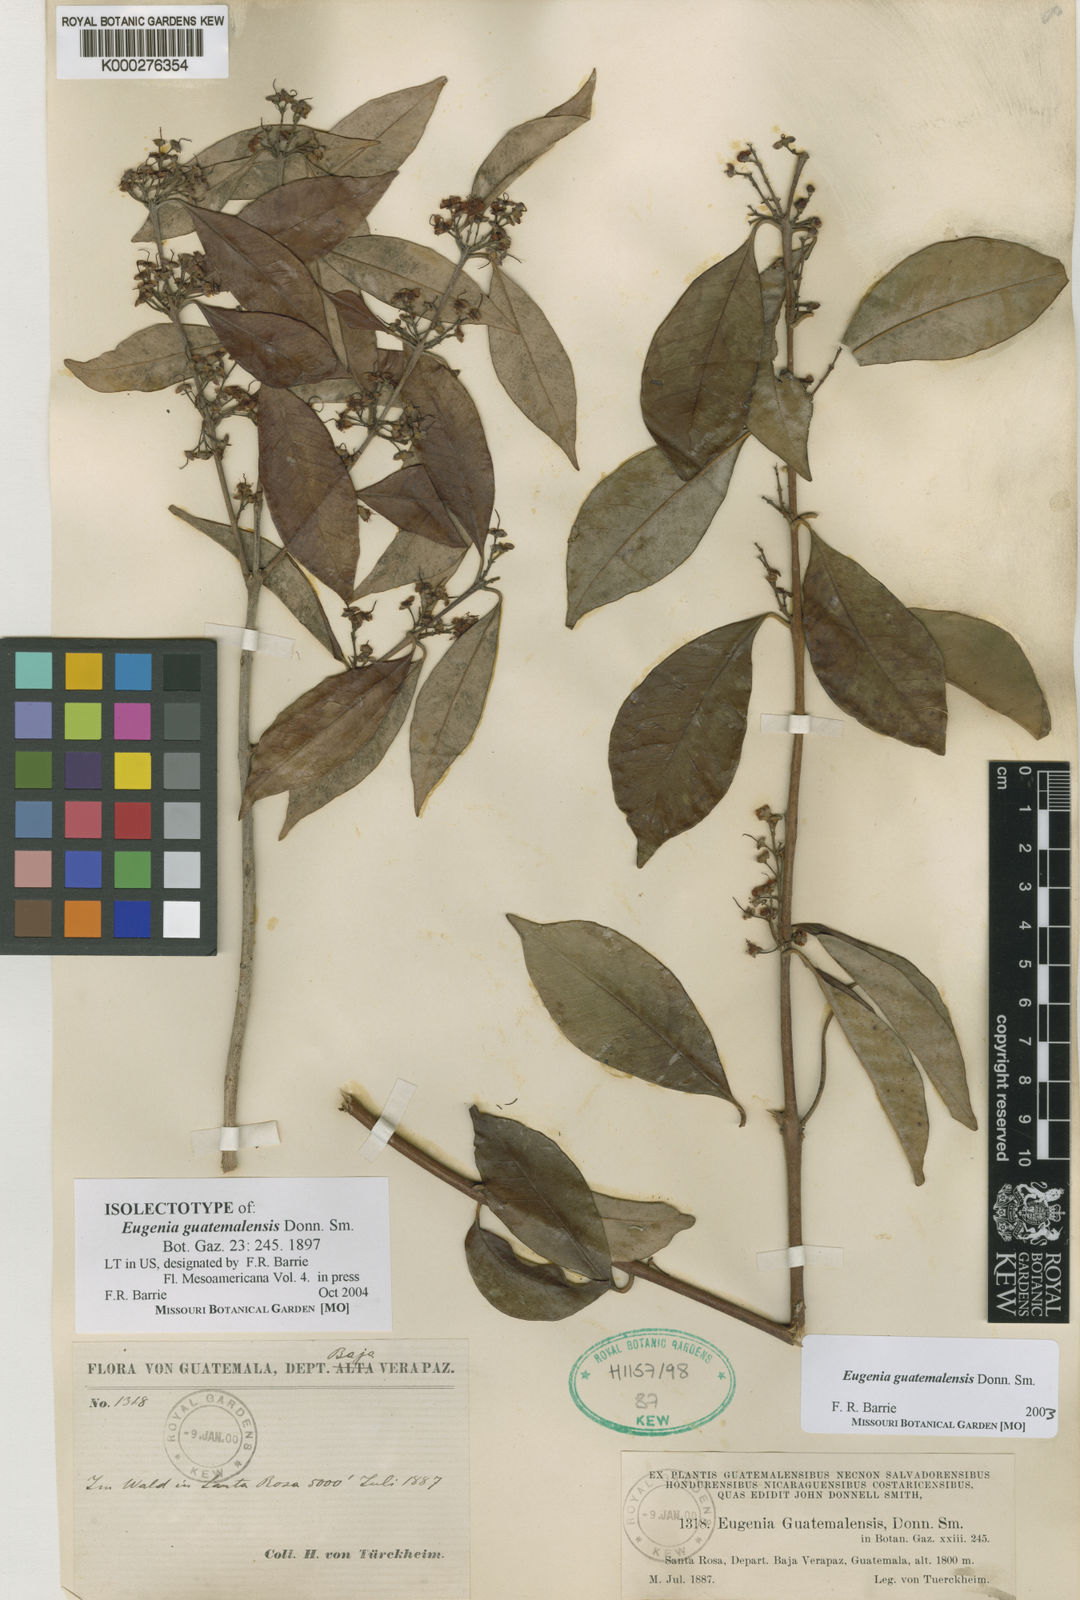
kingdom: Plantae
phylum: Tracheophyta
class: Magnoliopsida
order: Myrtales
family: Myrtaceae
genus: Eugenia
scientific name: Eugenia guatemalensis
